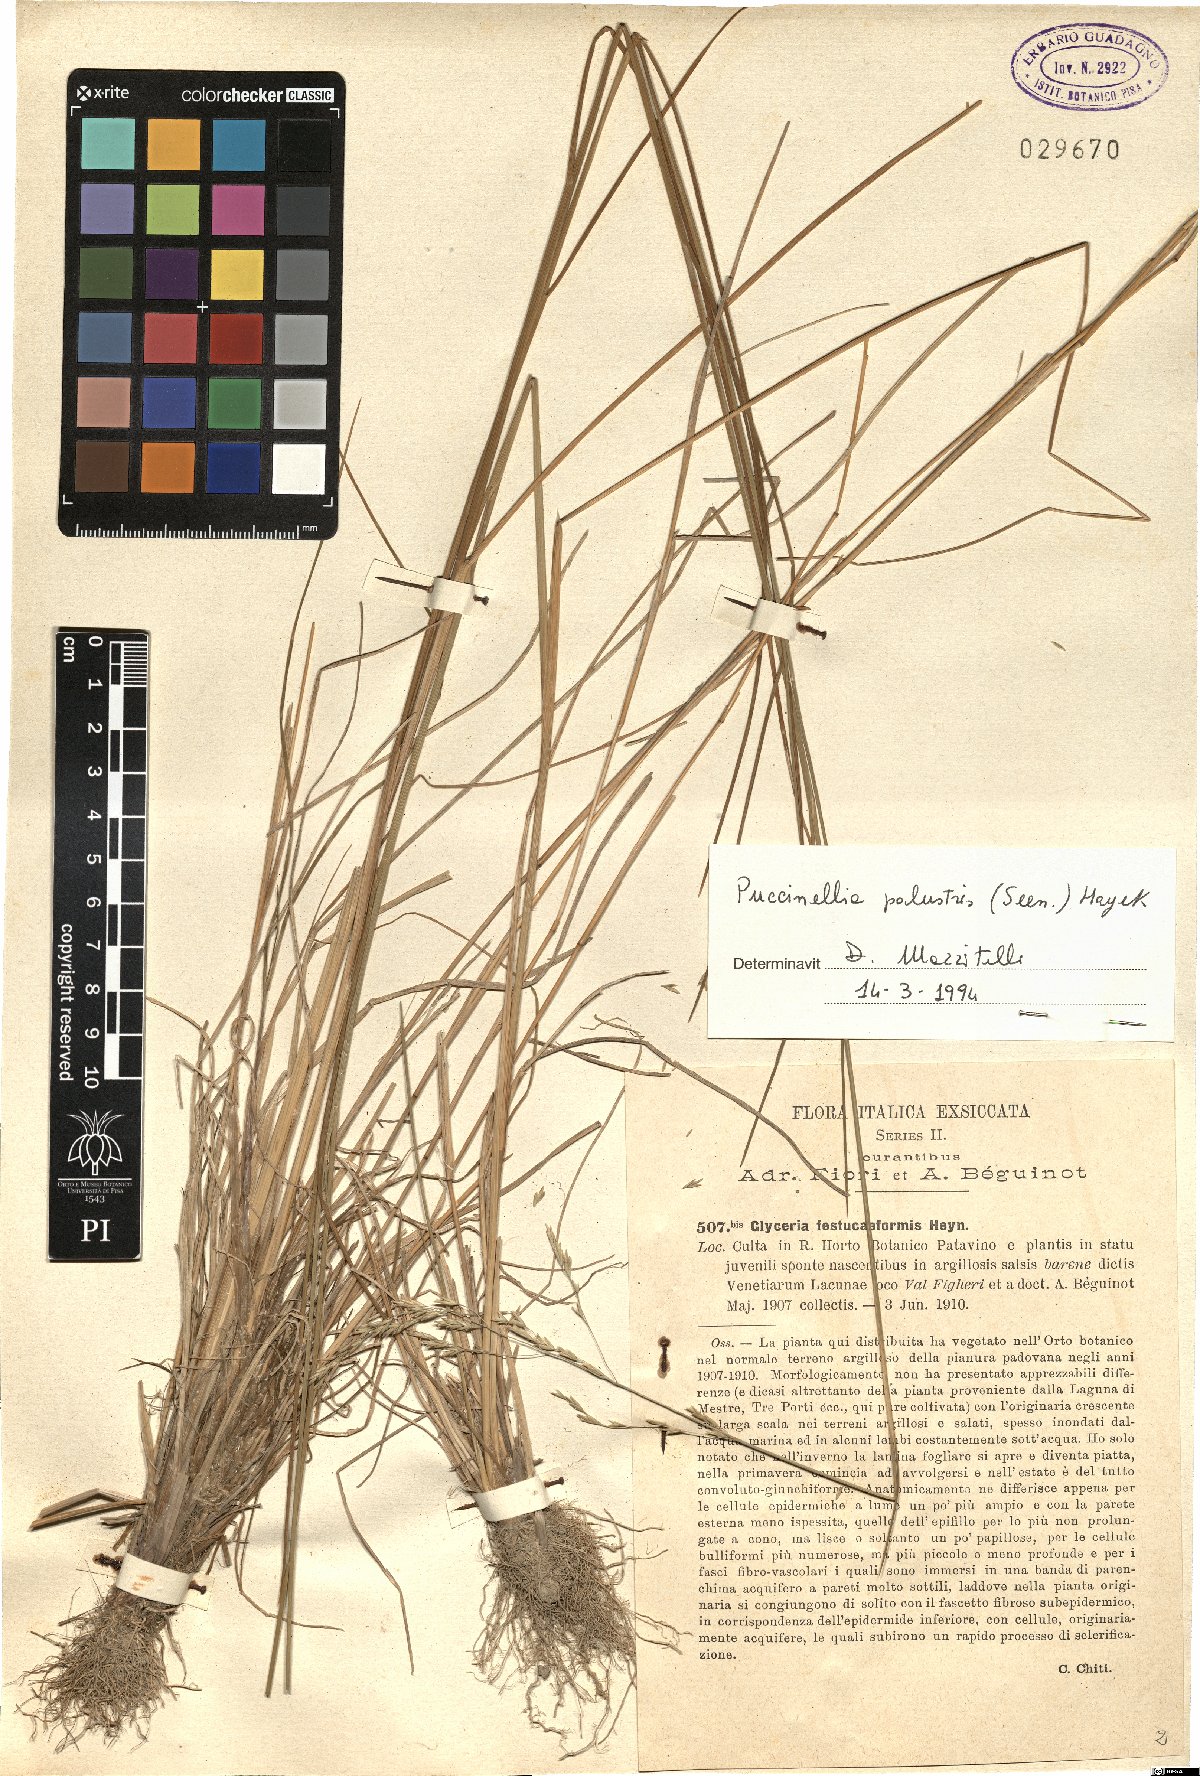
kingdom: Plantae
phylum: Tracheophyta
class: Liliopsida
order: Poales
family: Poaceae
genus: Puccinellia
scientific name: Puccinellia festuciformis
